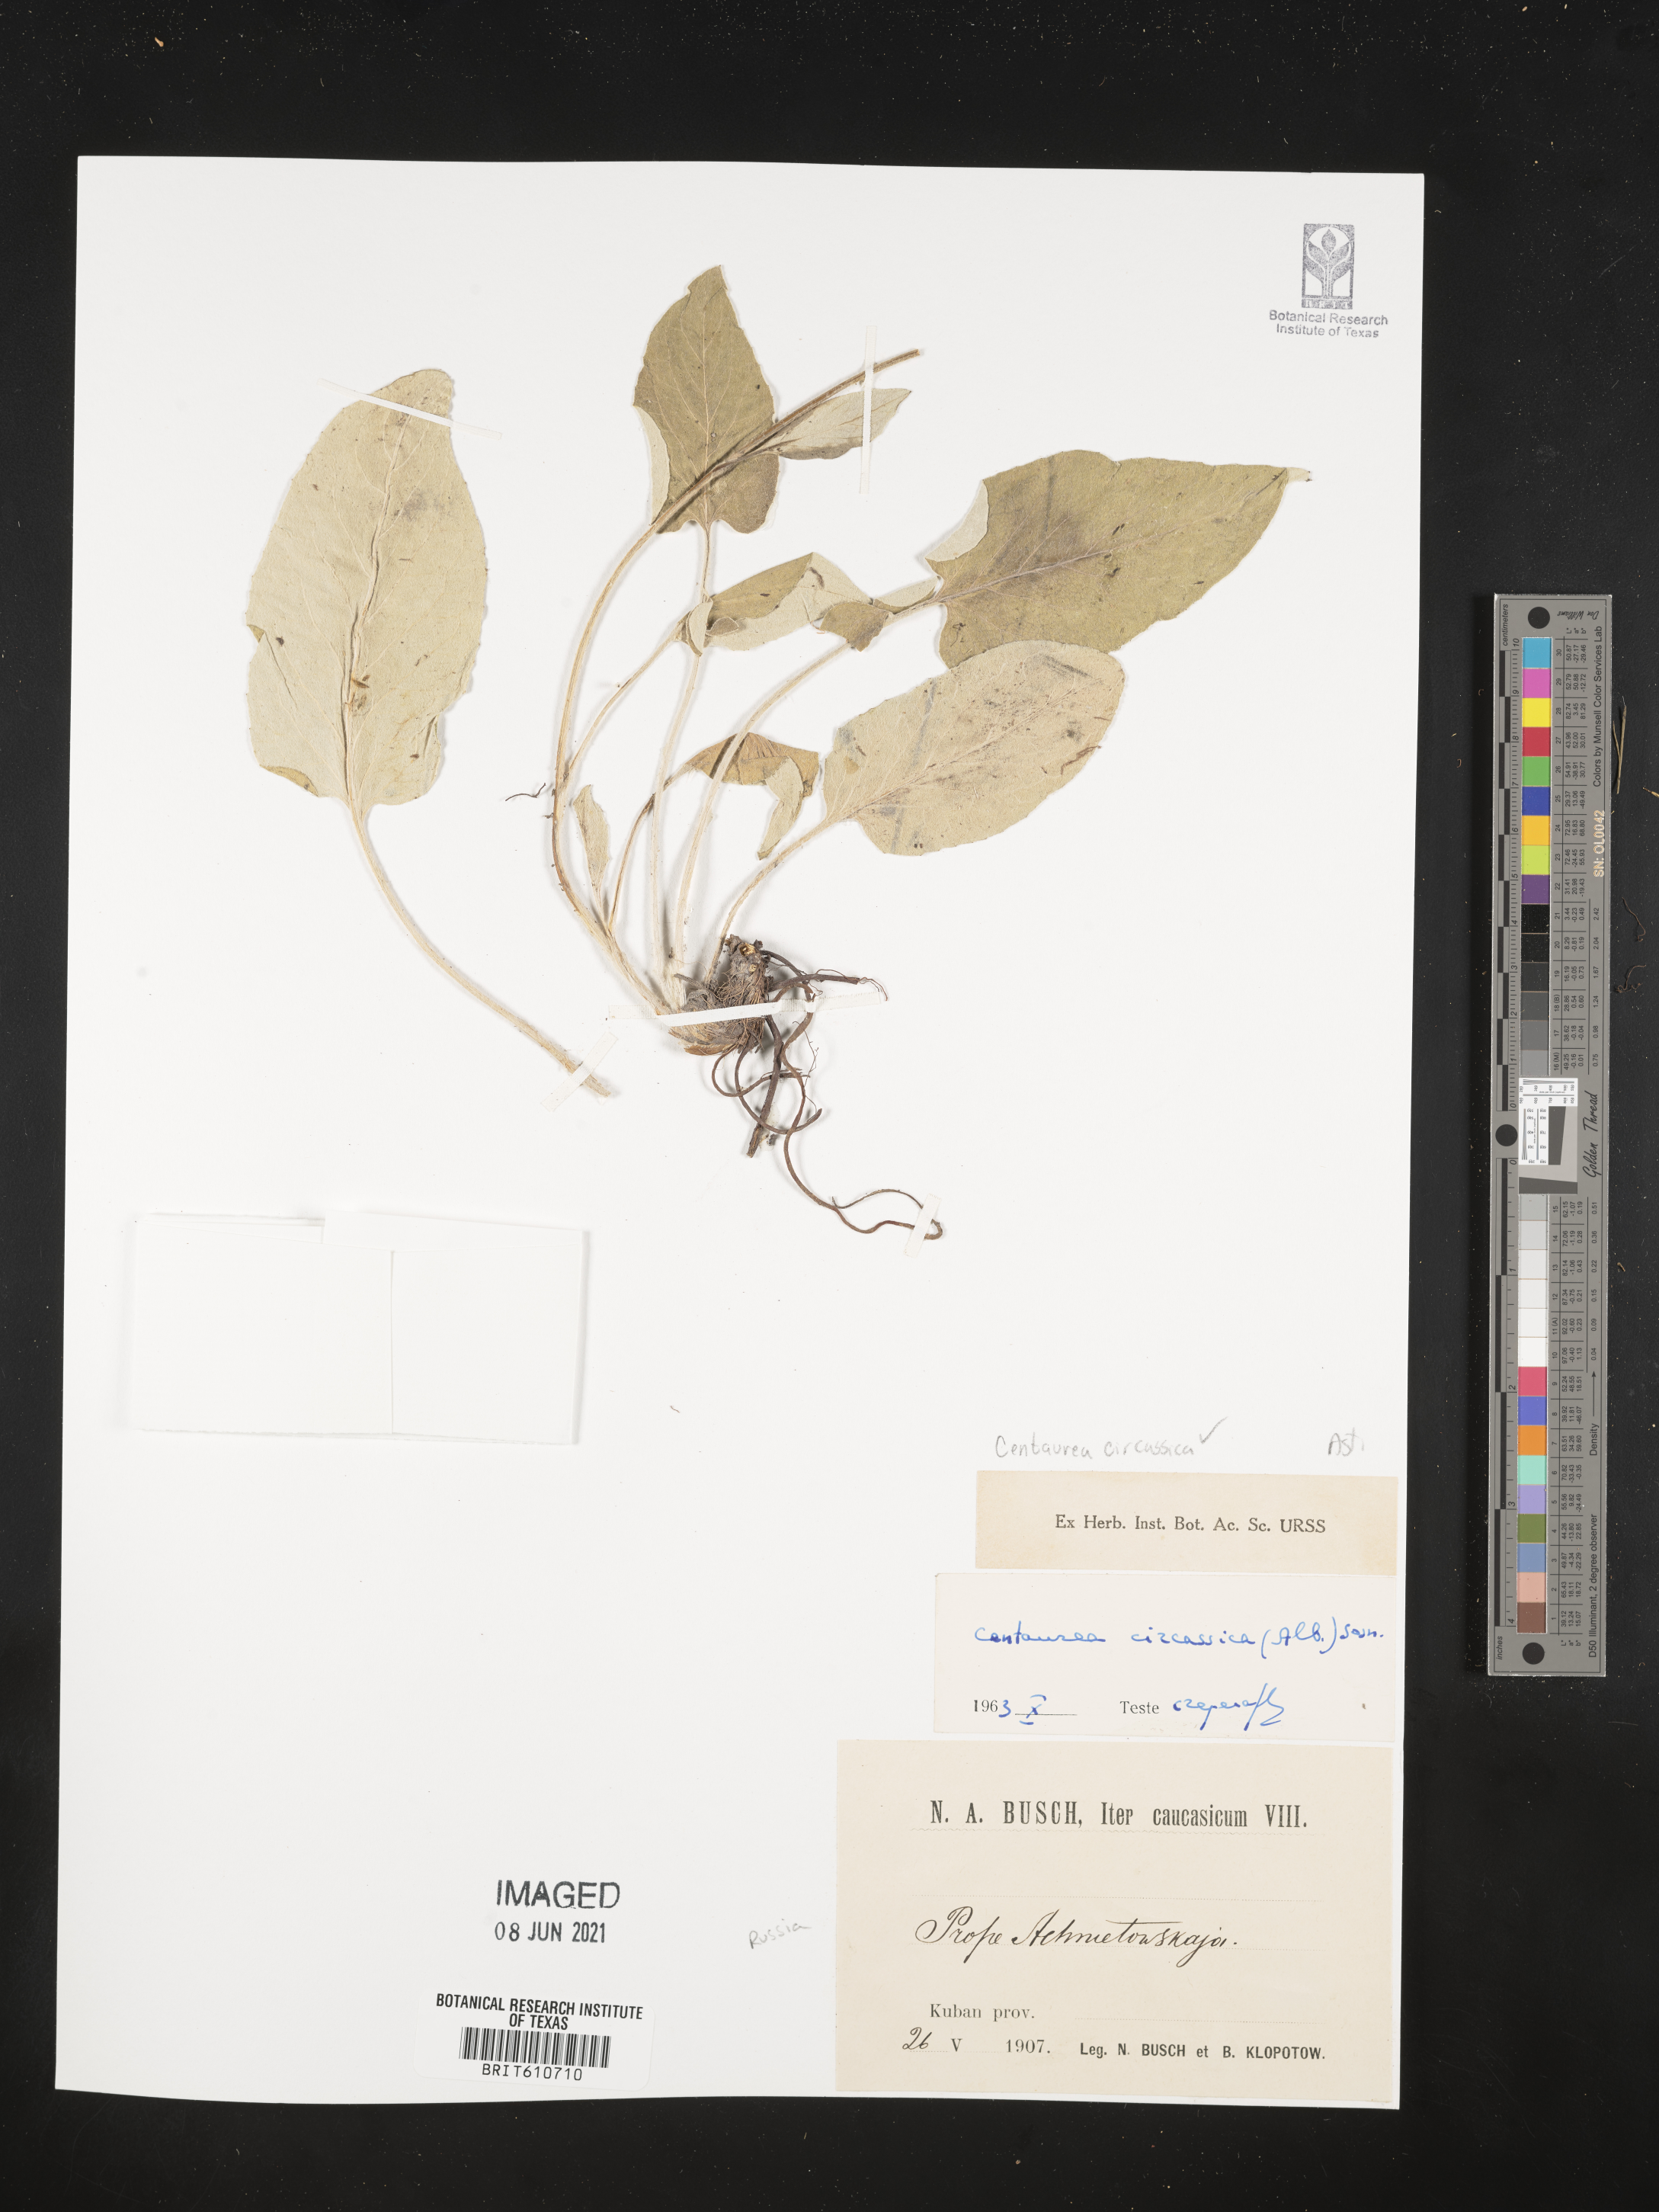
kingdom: Plantae
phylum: Tracheophyta
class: Magnoliopsida
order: Asterales
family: Asteraceae
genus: Psephellus
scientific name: Psephellus circassicus
